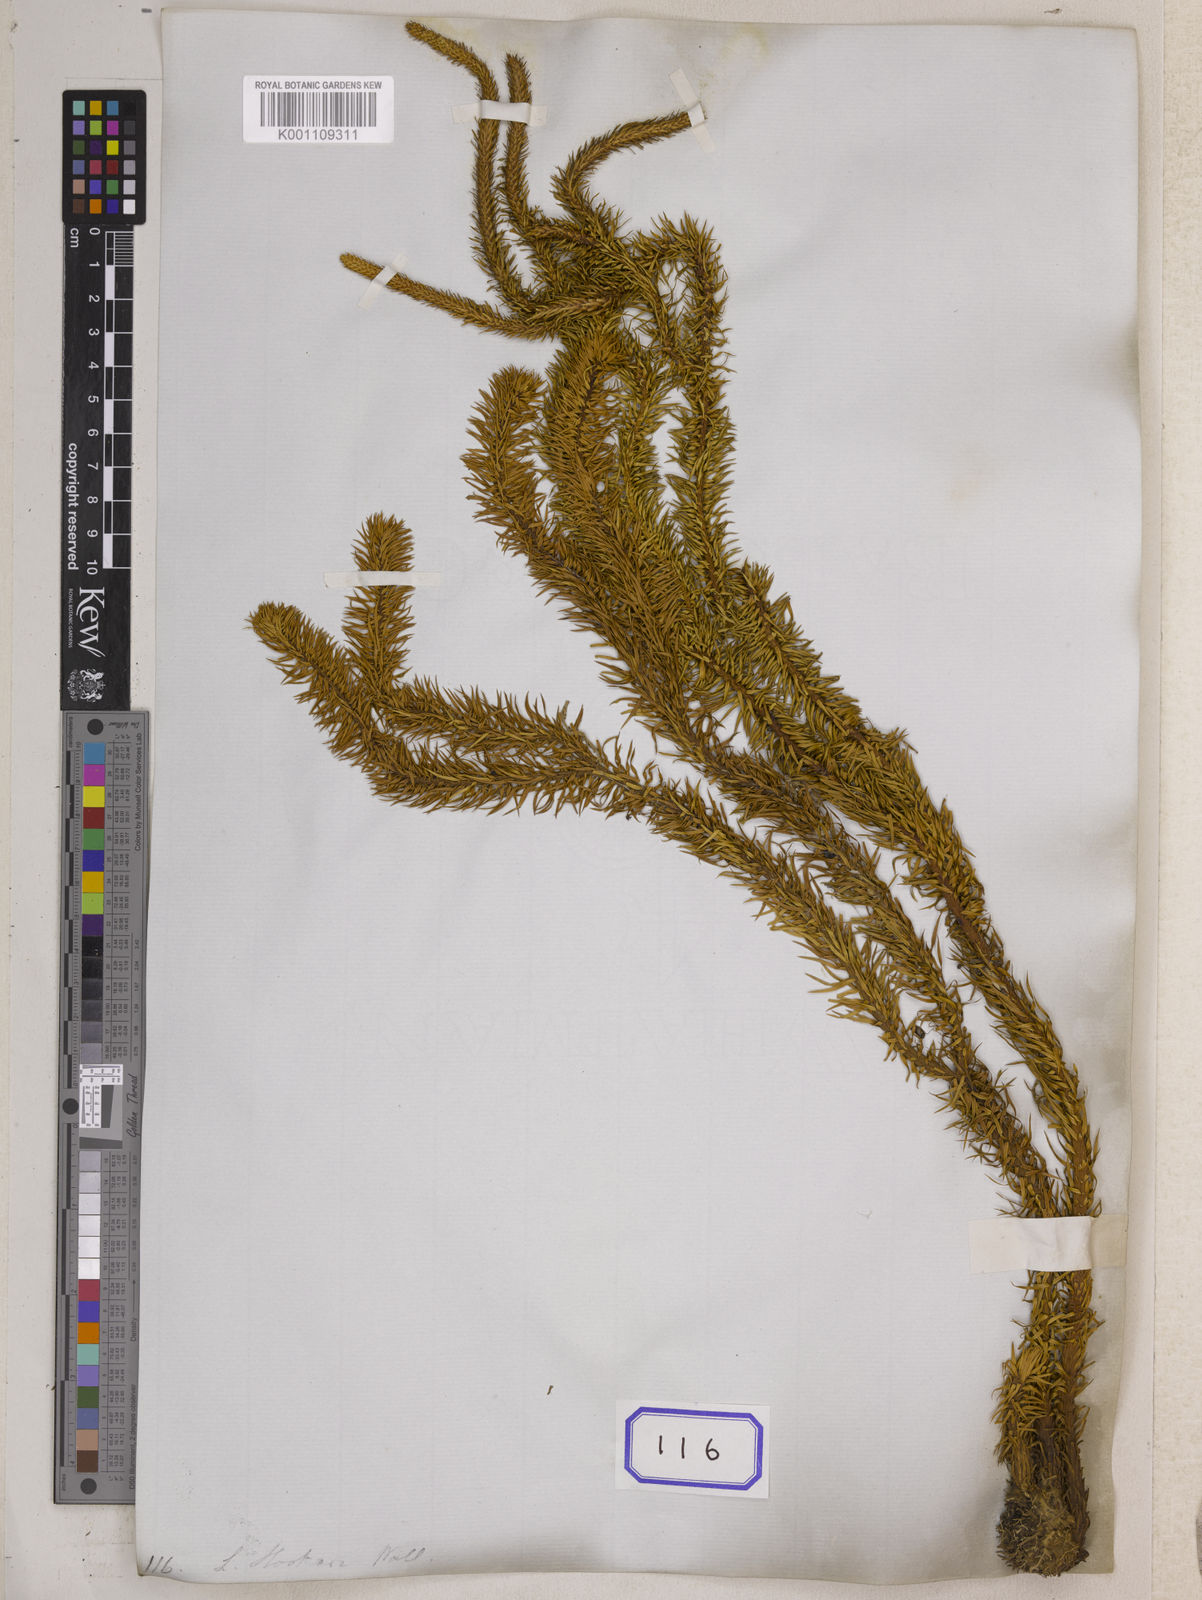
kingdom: Plantae
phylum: Tracheophyta
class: Lycopodiopsida
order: Lycopodiales
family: Lycopodiaceae
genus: Phlegmariurus
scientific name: Phlegmariurus squarrosus
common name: Rock tassel-fern
